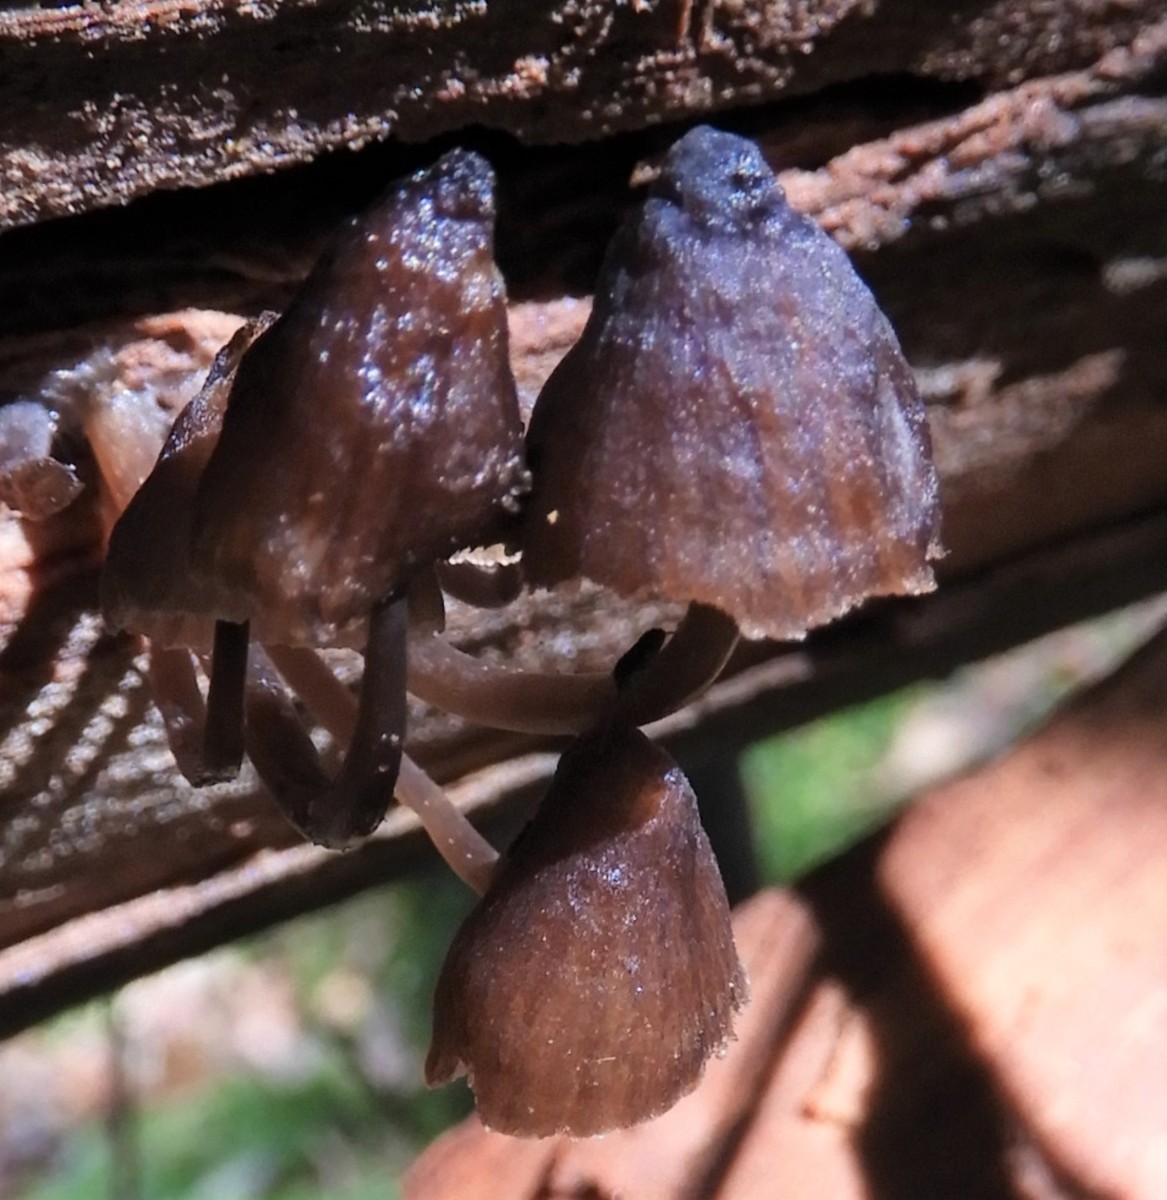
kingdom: Fungi
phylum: Basidiomycota
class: Agaricomycetes
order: Agaricales
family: Mycenaceae
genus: Mycena
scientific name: Mycena stipata
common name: stinkende huesvamp
